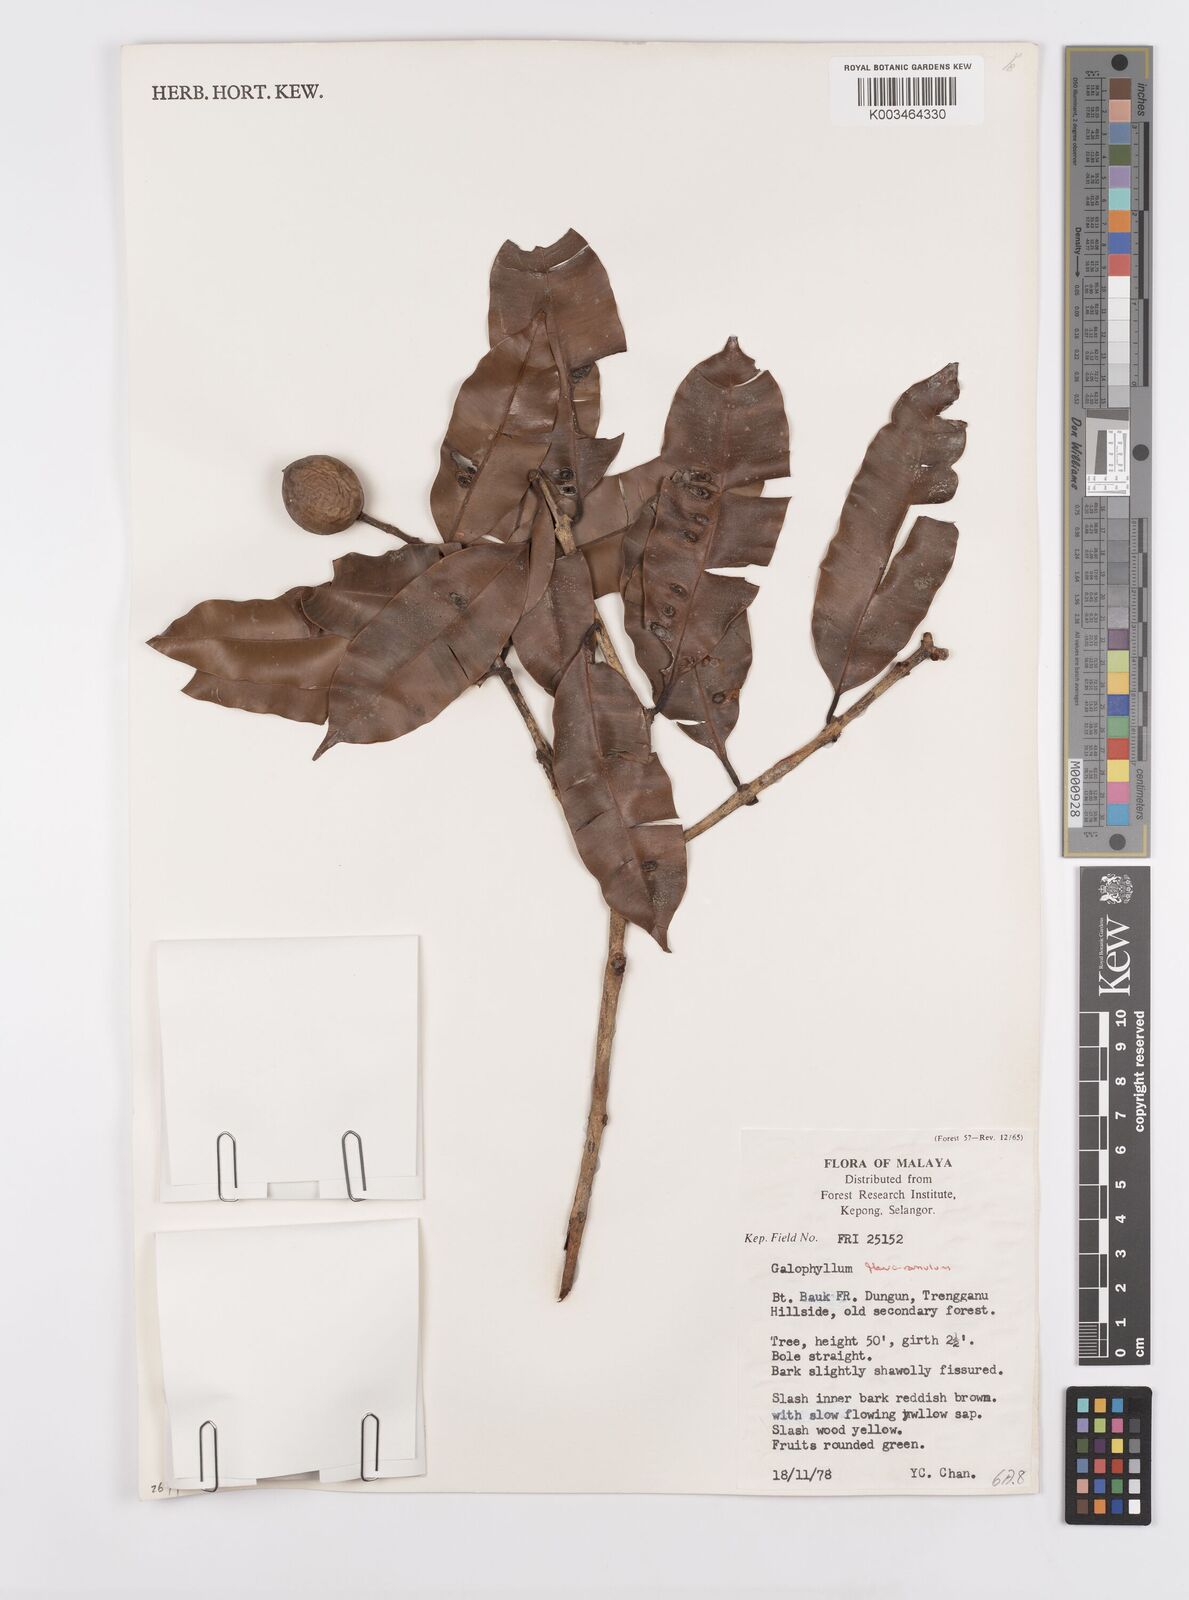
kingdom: Plantae
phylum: Tracheophyta
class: Magnoliopsida
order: Malpighiales
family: Calophyllaceae
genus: Calophyllum
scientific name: Calophyllum flavoramulum
